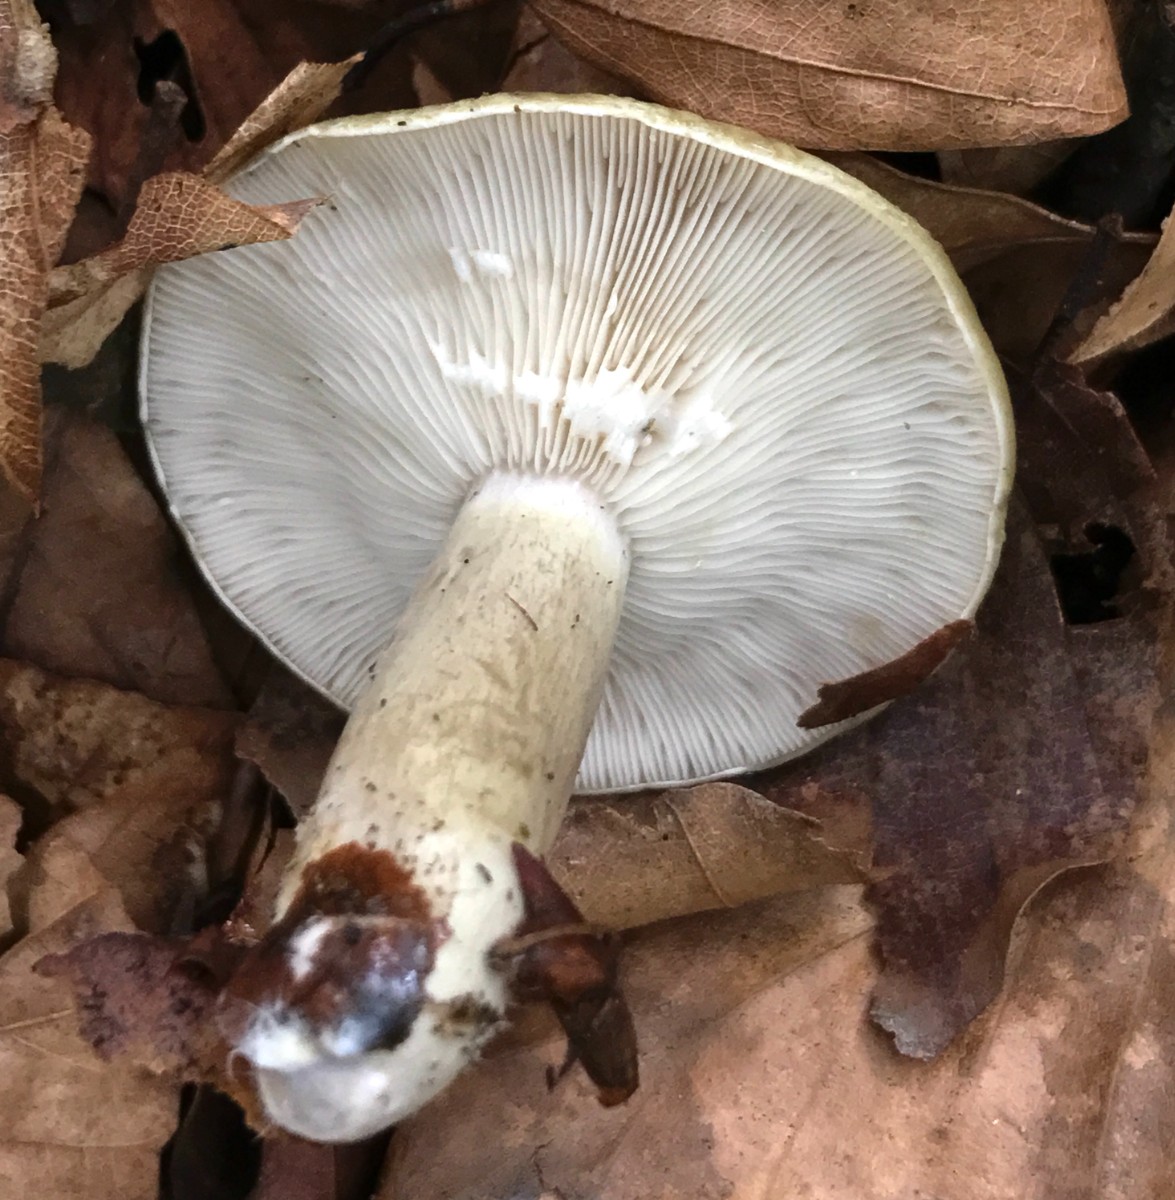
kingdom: Fungi
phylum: Basidiomycota
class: Agaricomycetes
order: Russulales
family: Russulaceae
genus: Lactarius
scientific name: Lactarius blennius
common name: dråbeplettet mælkehat
